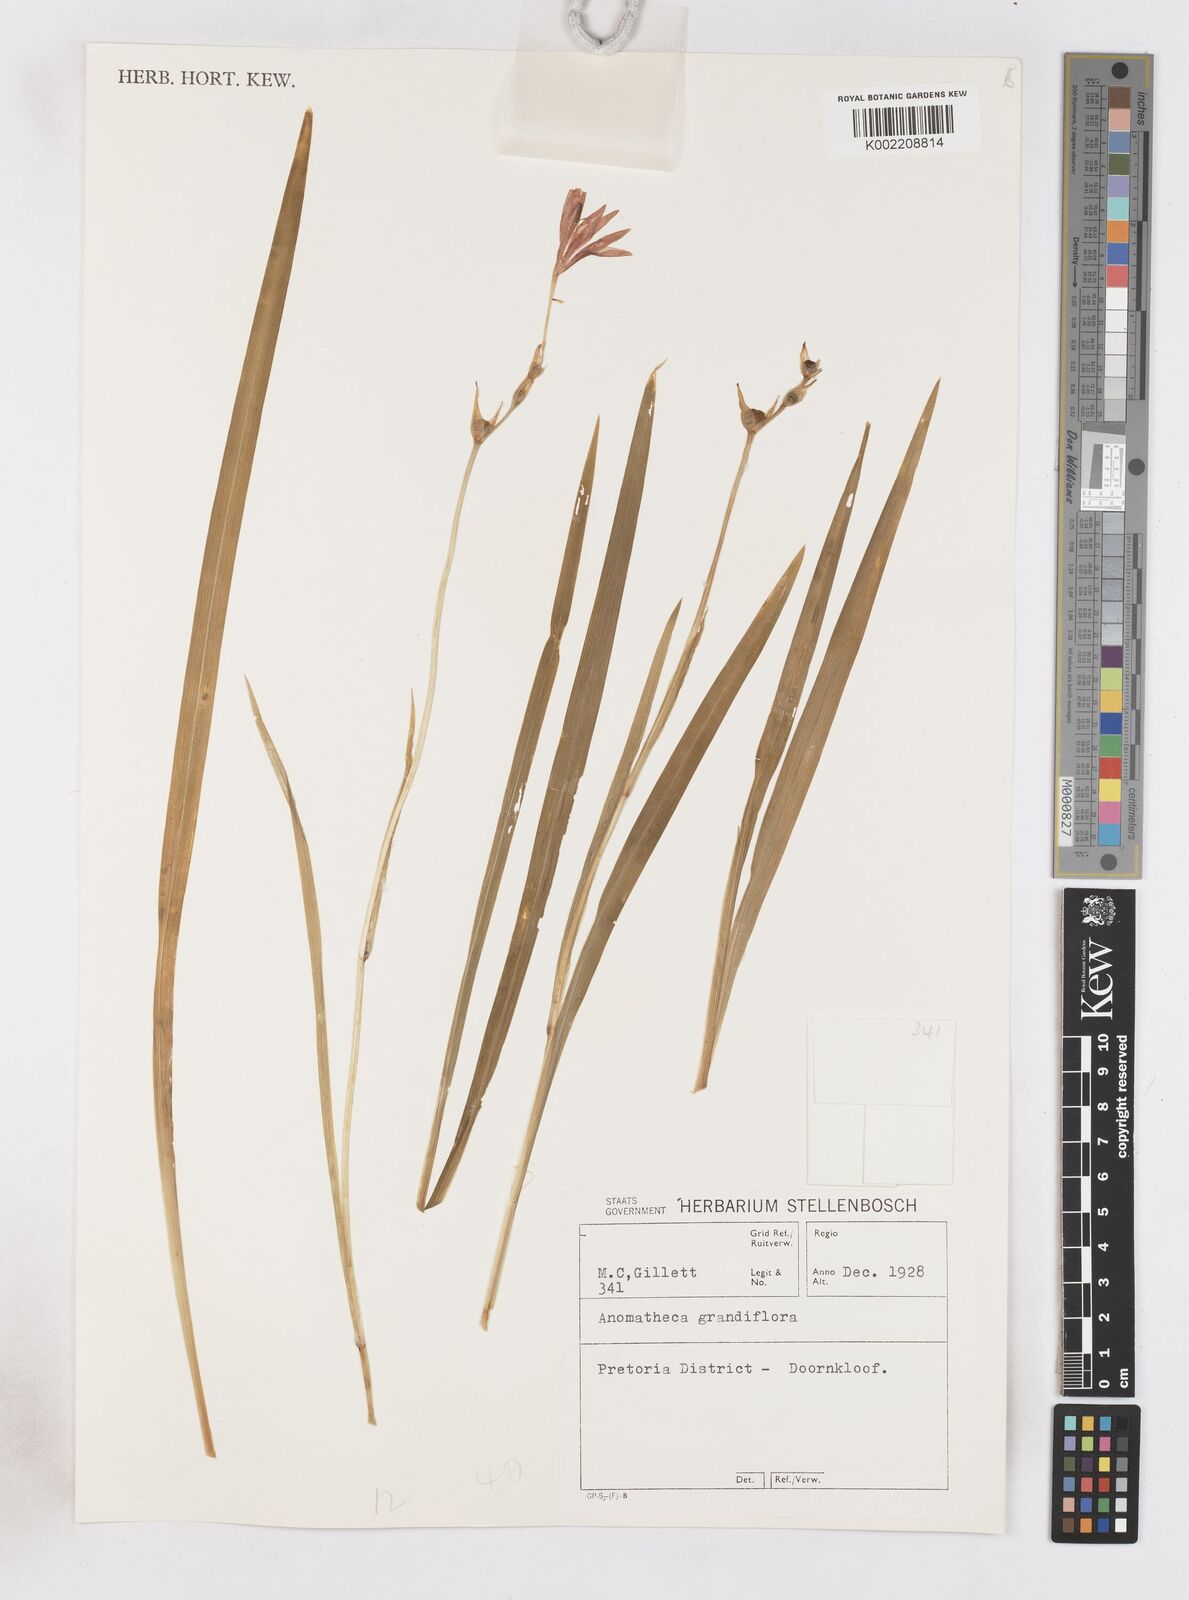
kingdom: Plantae
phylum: Tracheophyta
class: Liliopsida
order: Asparagales
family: Iridaceae
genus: Freesia
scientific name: Freesia grandiflora
